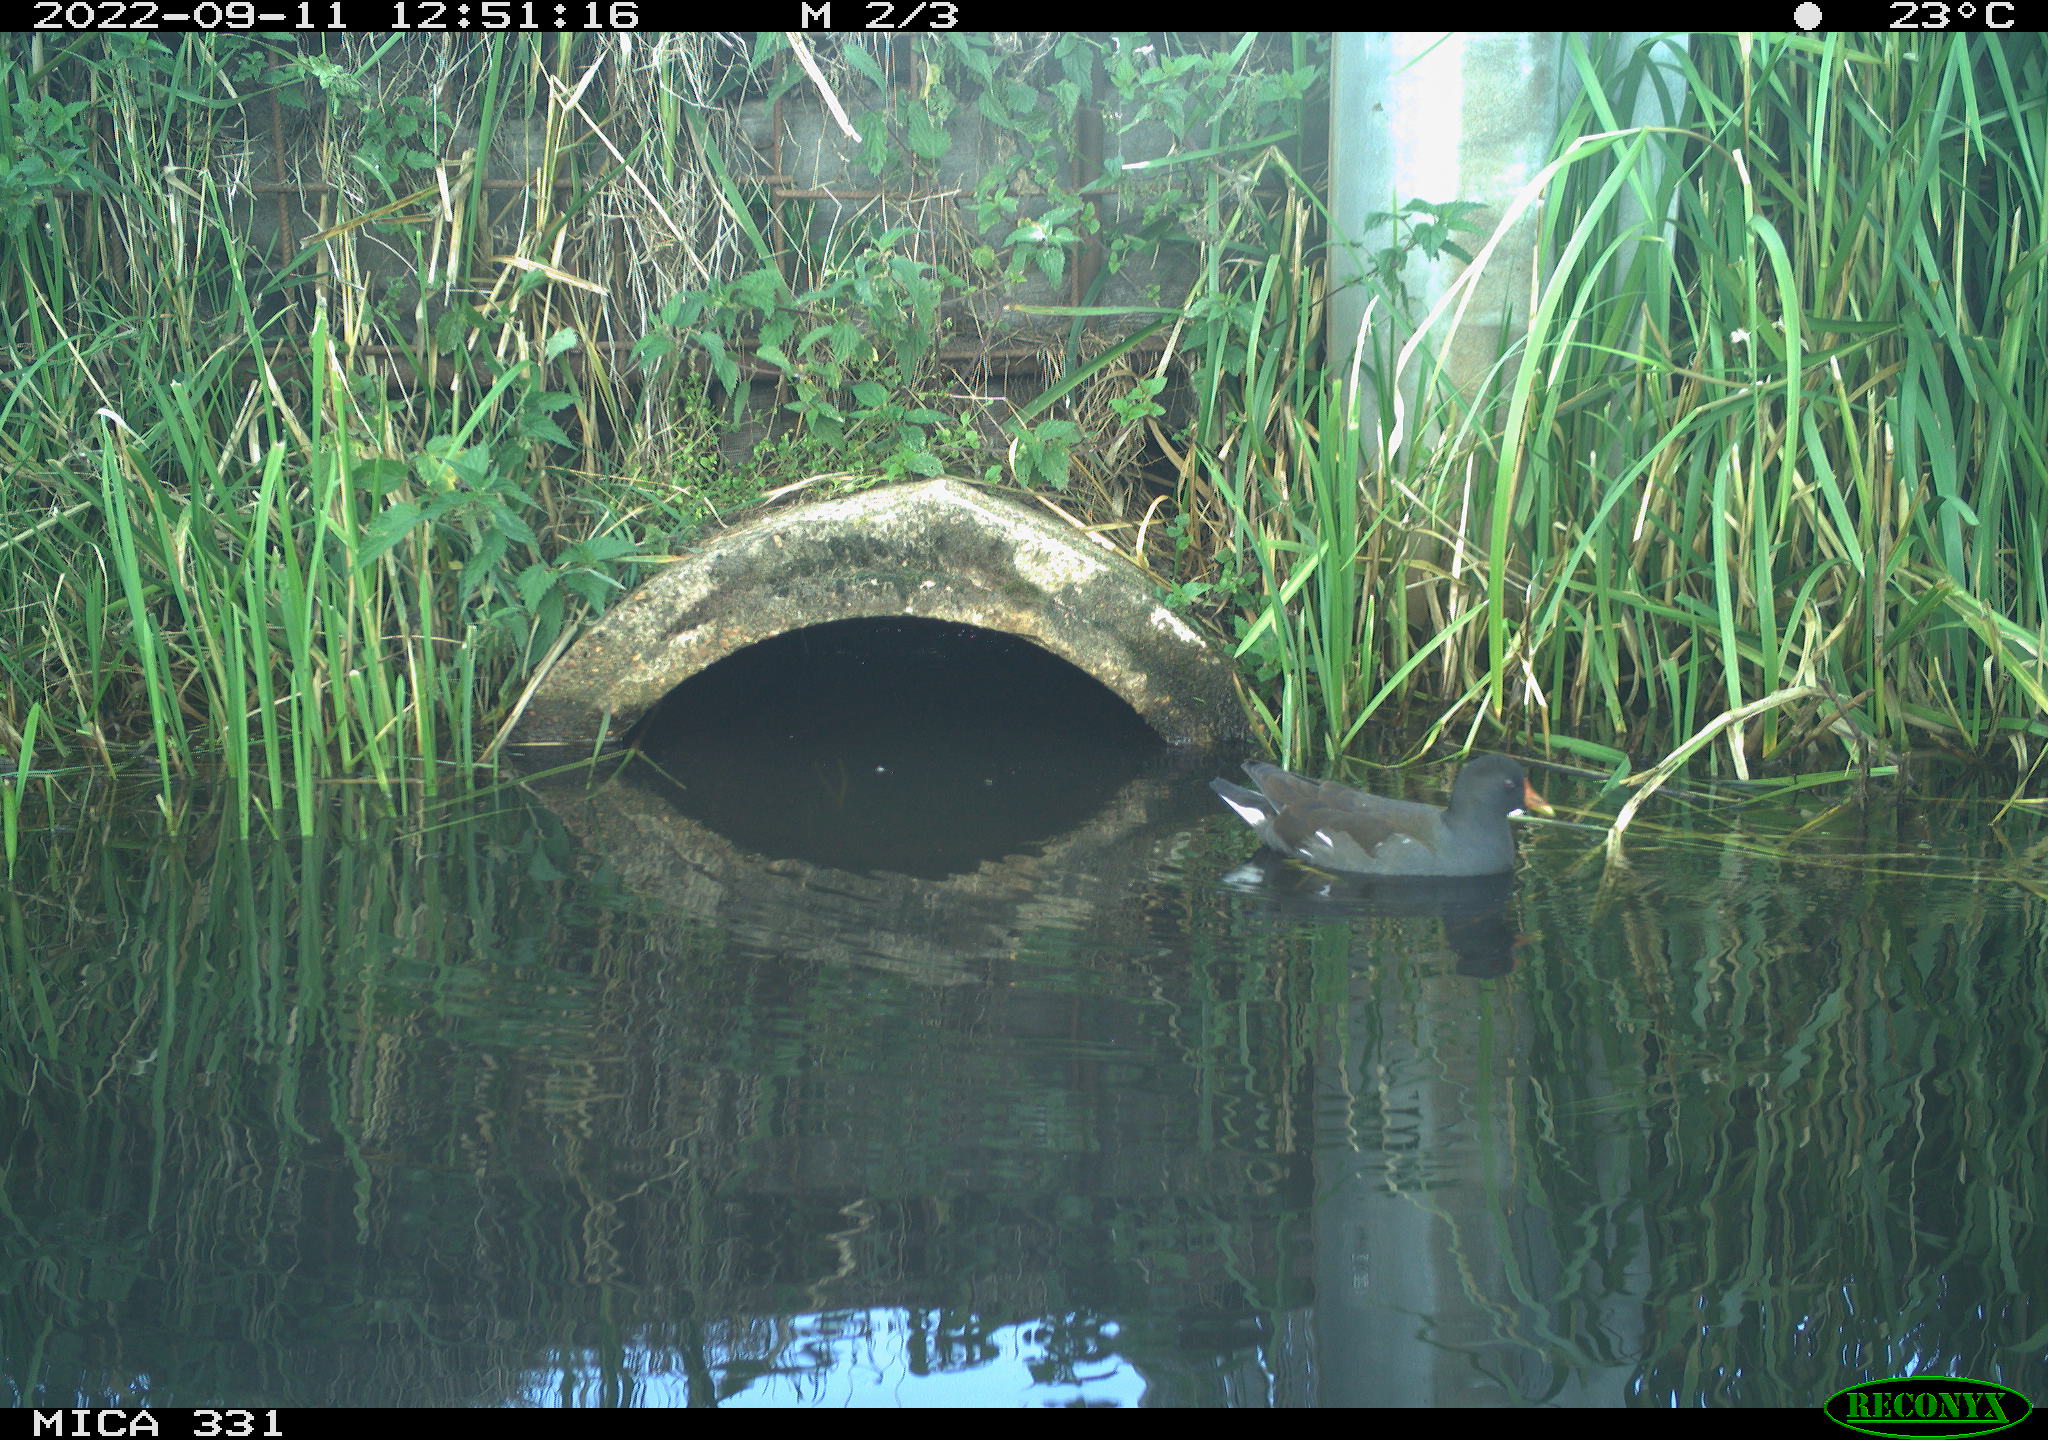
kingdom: Animalia
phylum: Chordata
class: Aves
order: Gruiformes
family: Rallidae
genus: Gallinula
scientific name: Gallinula chloropus
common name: Common moorhen
